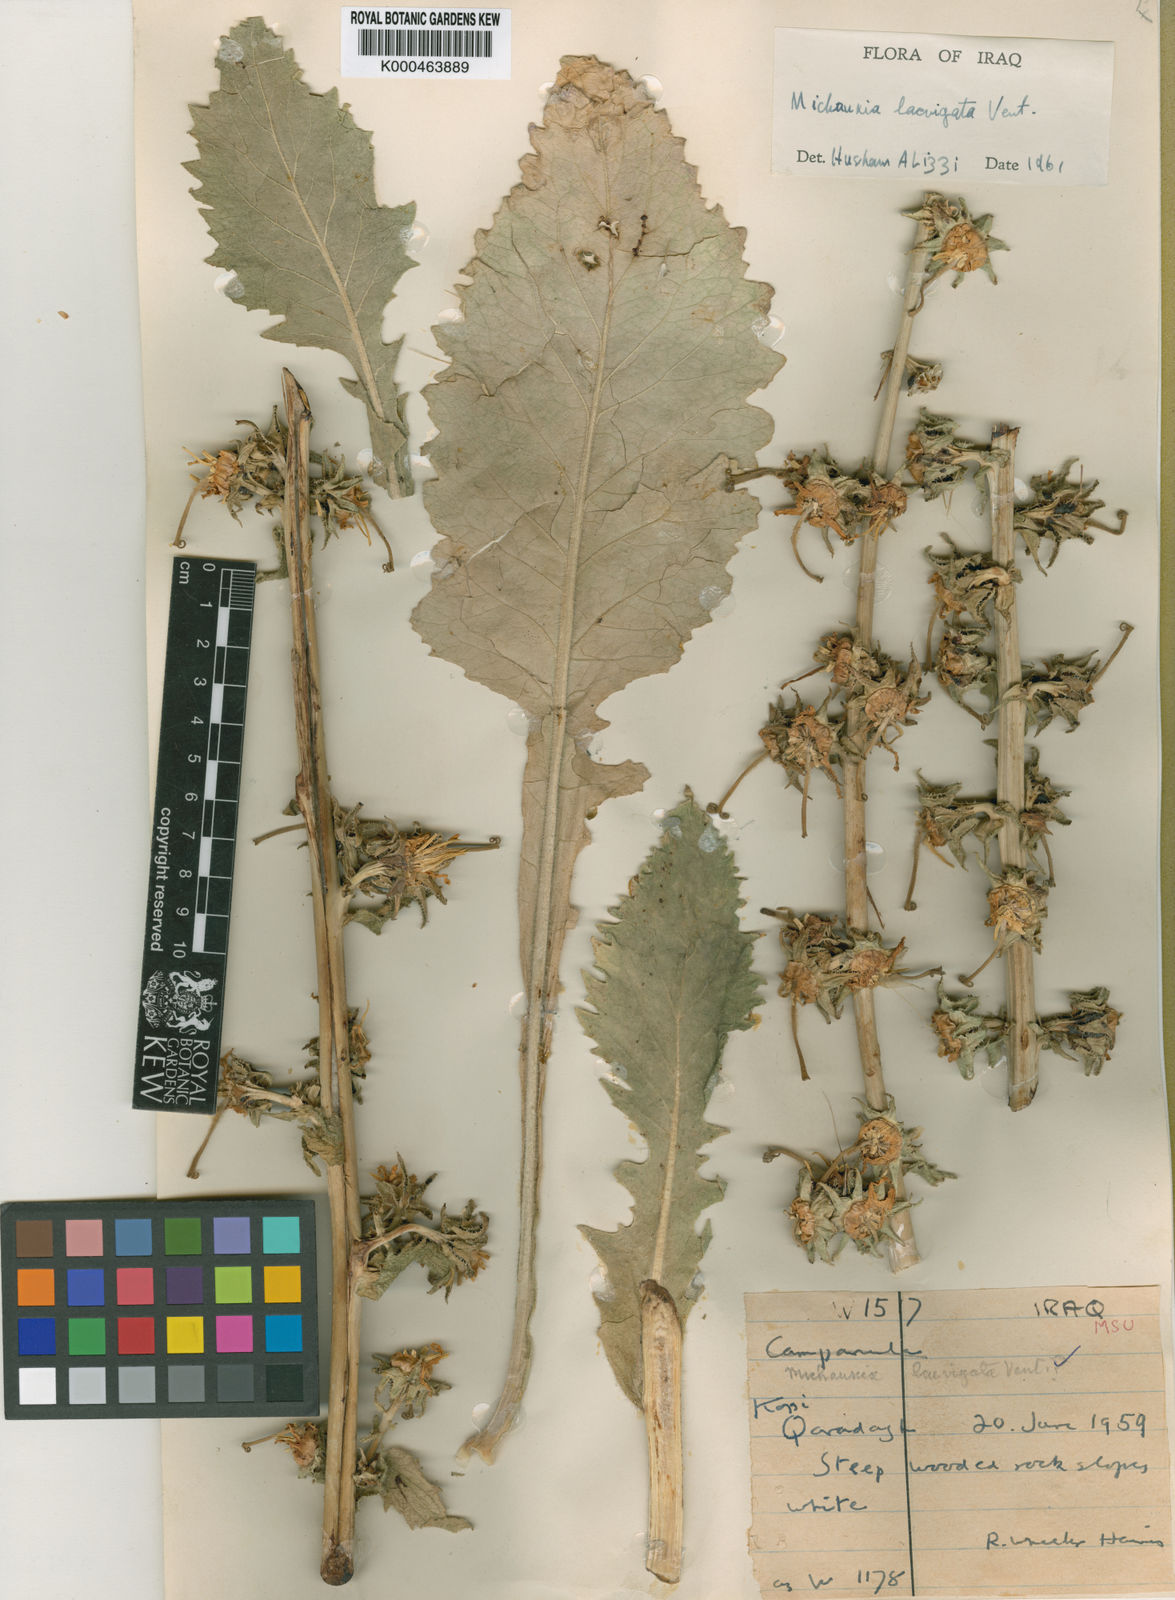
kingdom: Plantae
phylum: Tracheophyta
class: Magnoliopsida
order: Asterales
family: Campanulaceae
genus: Michauxia
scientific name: Michauxia laevigata
